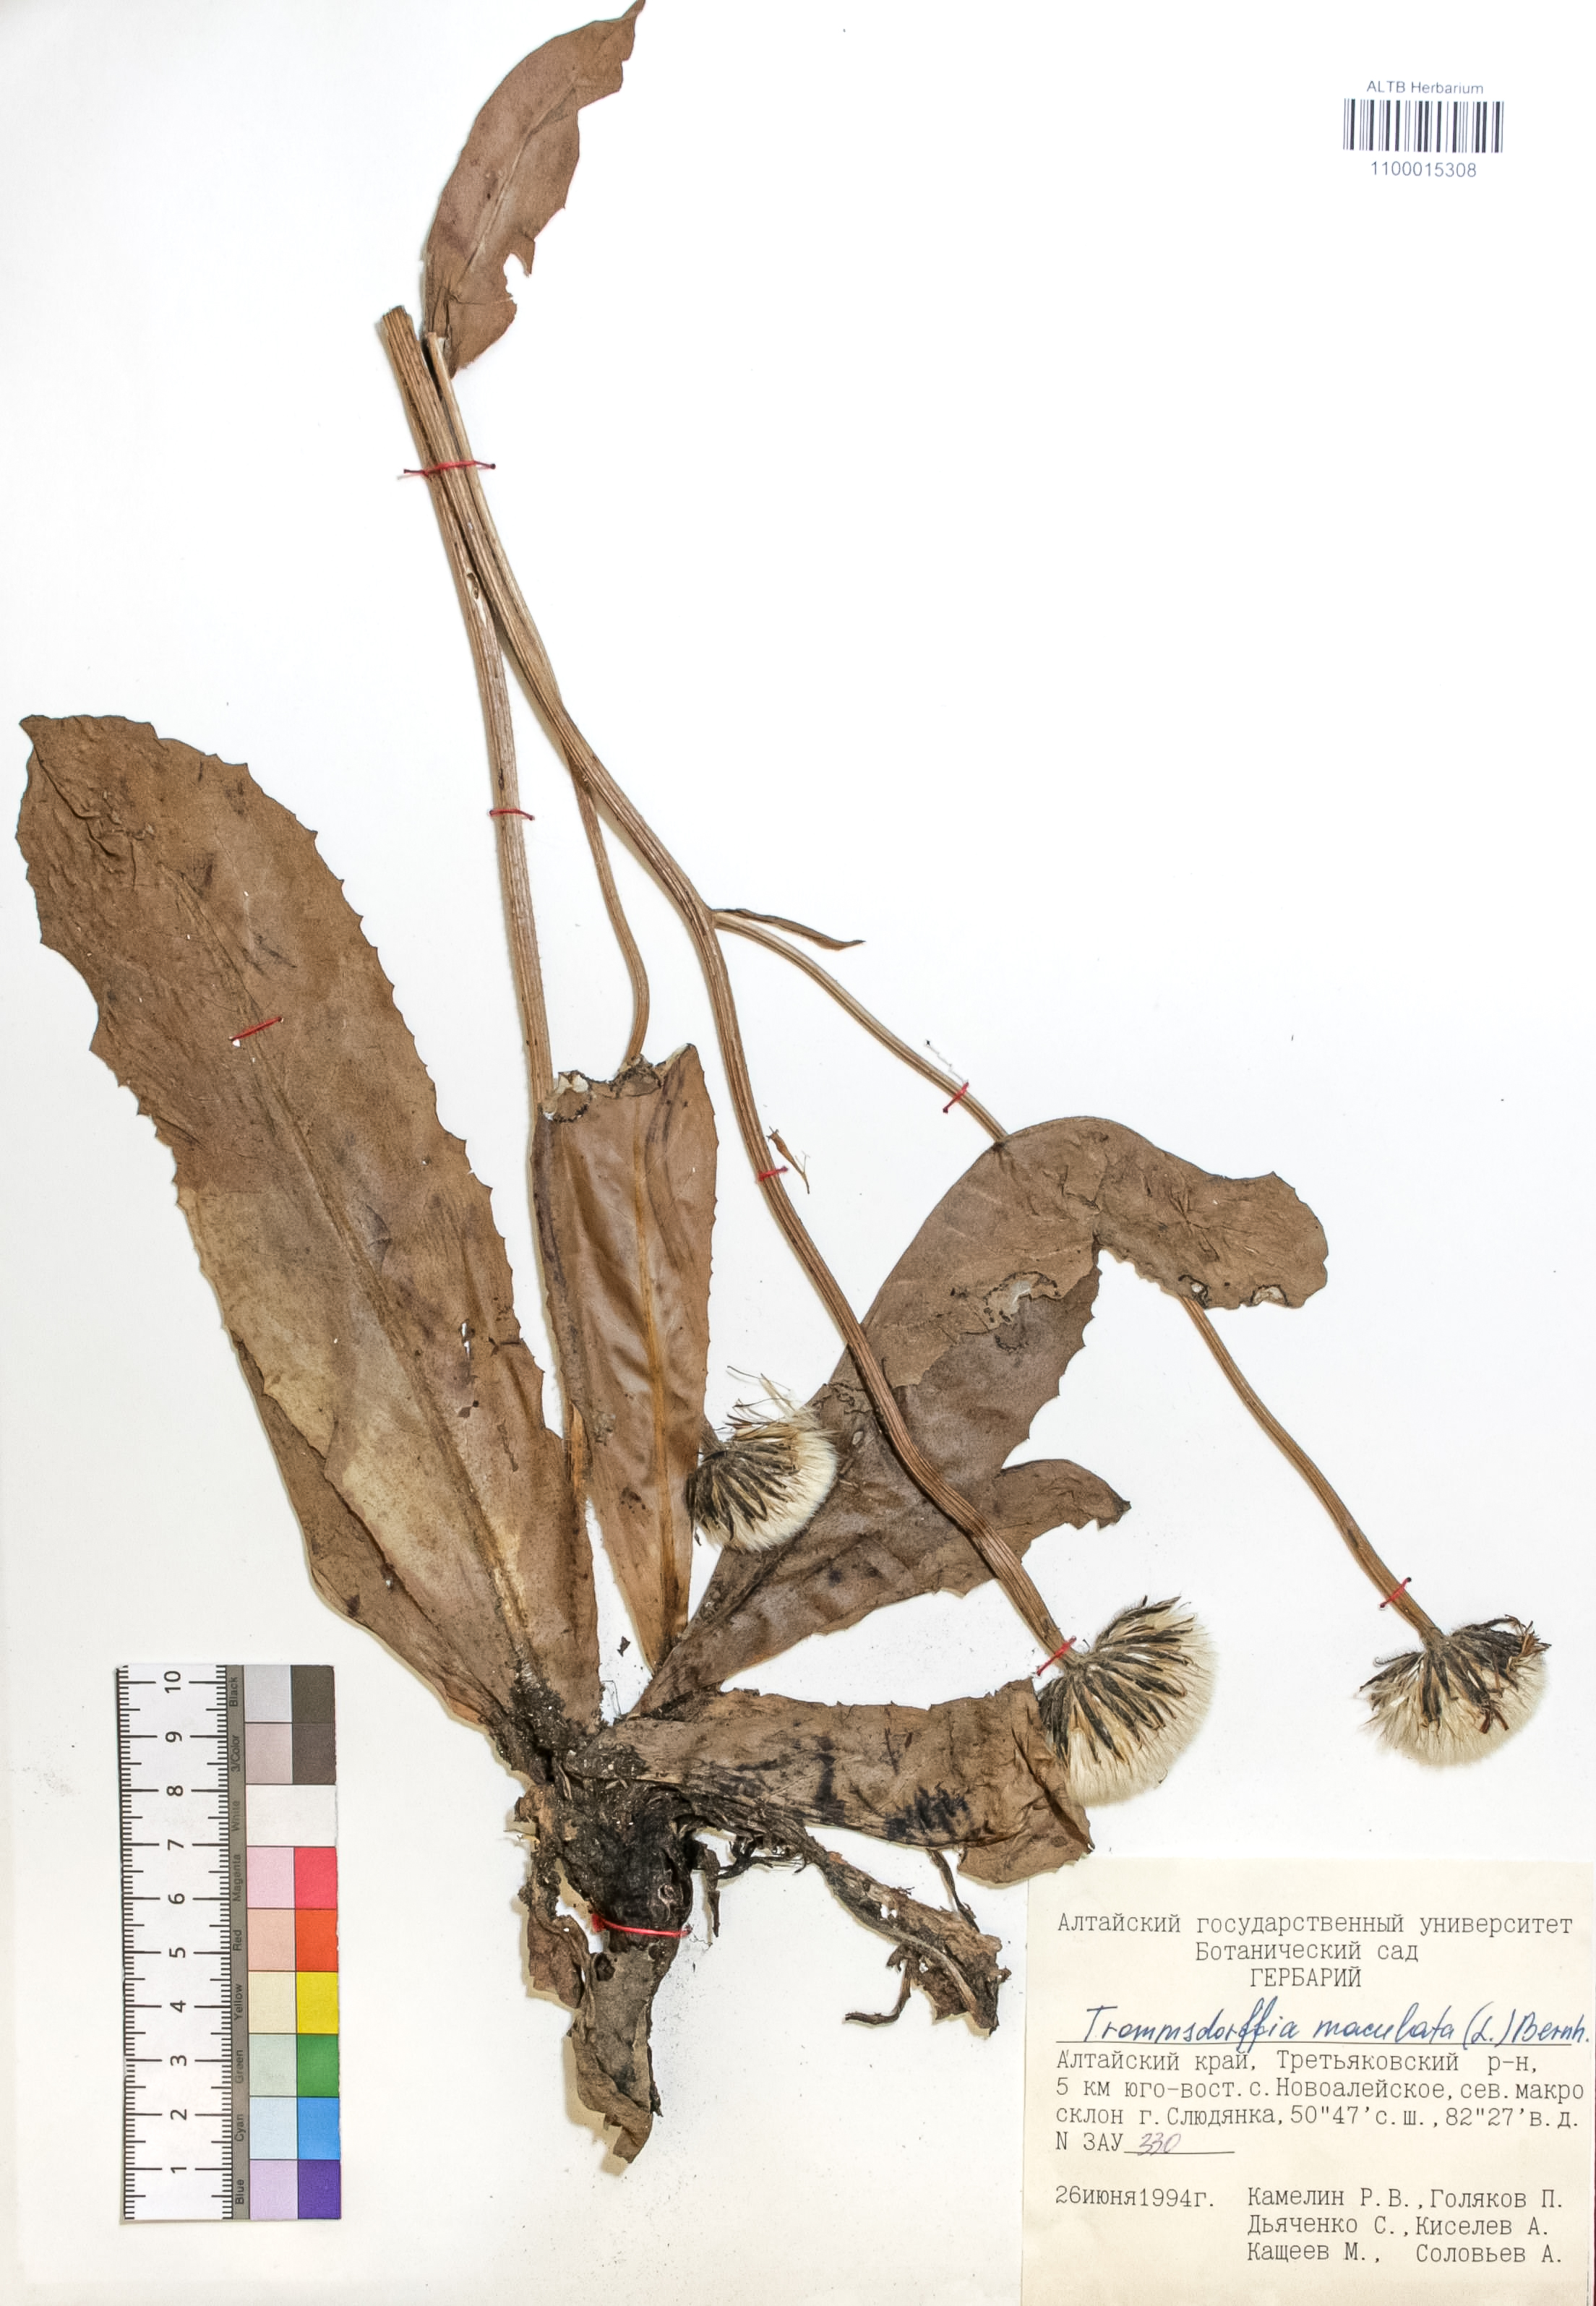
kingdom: Plantae
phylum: Tracheophyta
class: Magnoliopsida
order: Asterales
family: Asteraceae
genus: Trommsdorffia
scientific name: Trommsdorffia maculata
